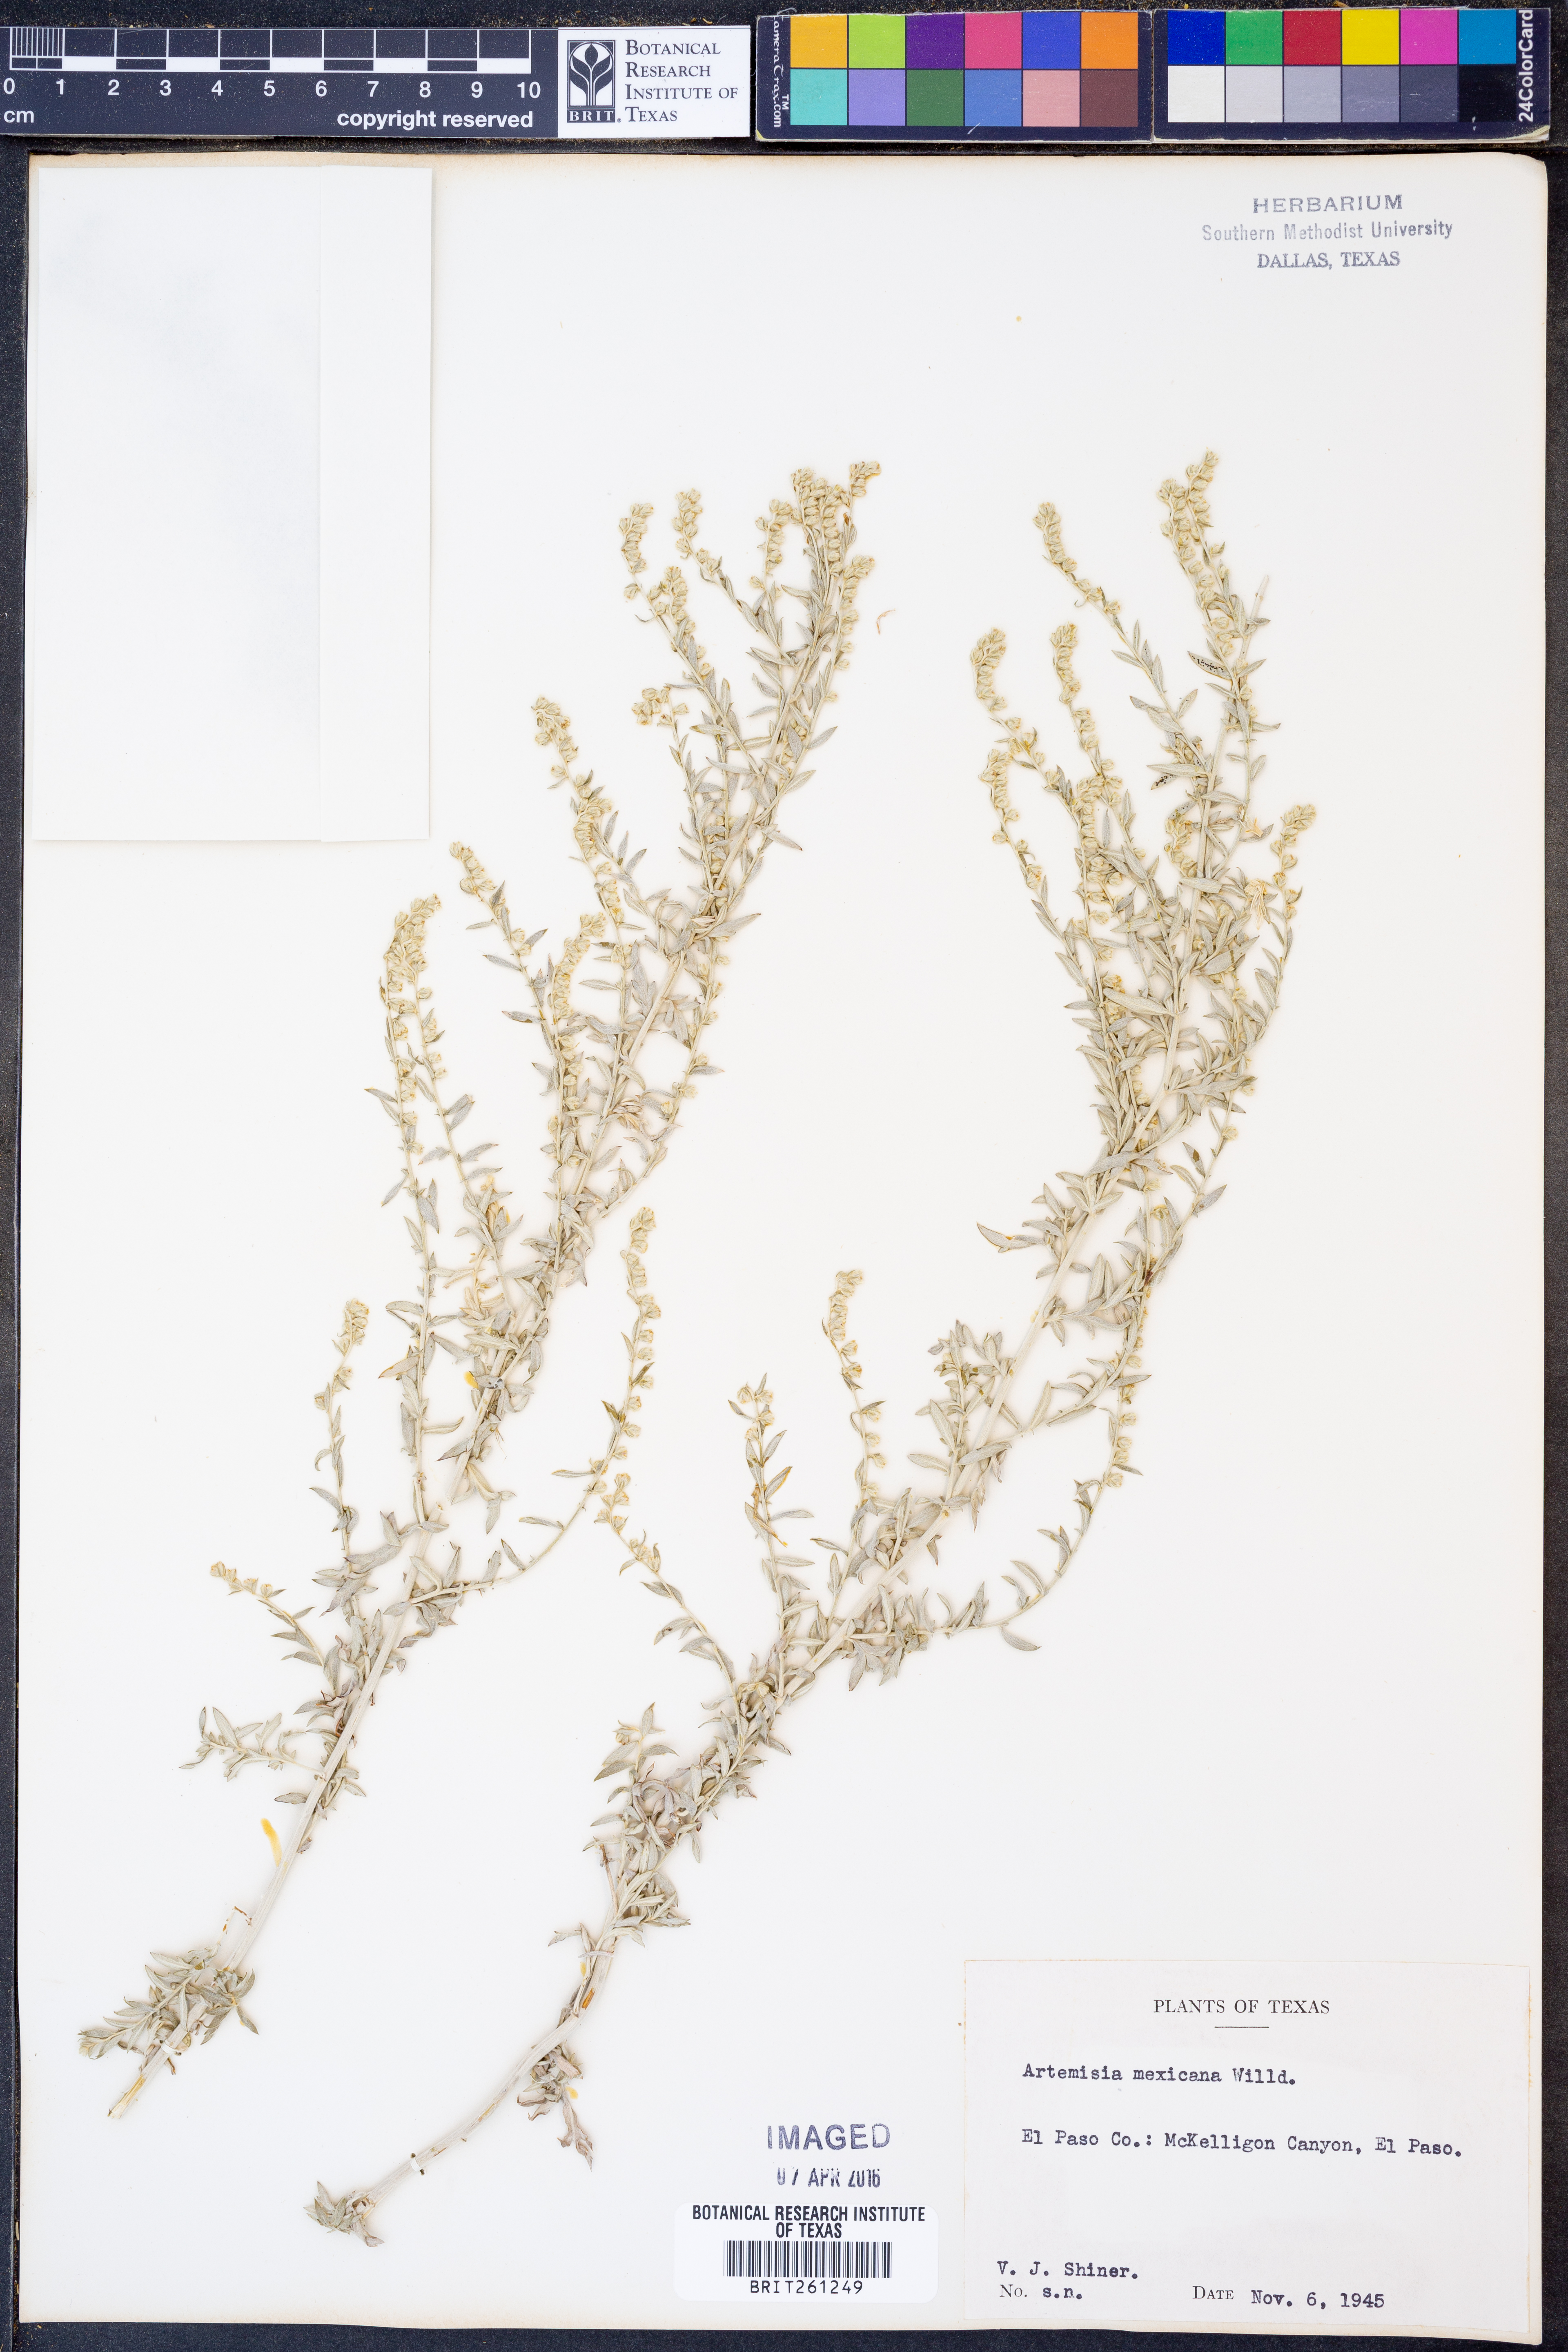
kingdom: Plantae
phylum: Tracheophyta
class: Magnoliopsida
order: Asterales
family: Asteraceae
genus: Artemisia
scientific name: Artemisia ludoviciana
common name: Western mugwort
